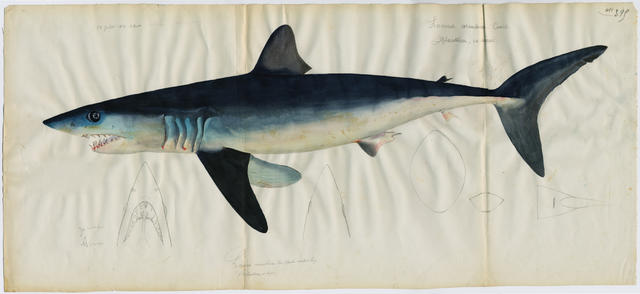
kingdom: Animalia
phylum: Chordata
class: Elasmobranchii
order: Lamniformes
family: Lamnidae
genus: Isurus
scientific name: Isurus oxyrinchus
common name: Shortfin mako
